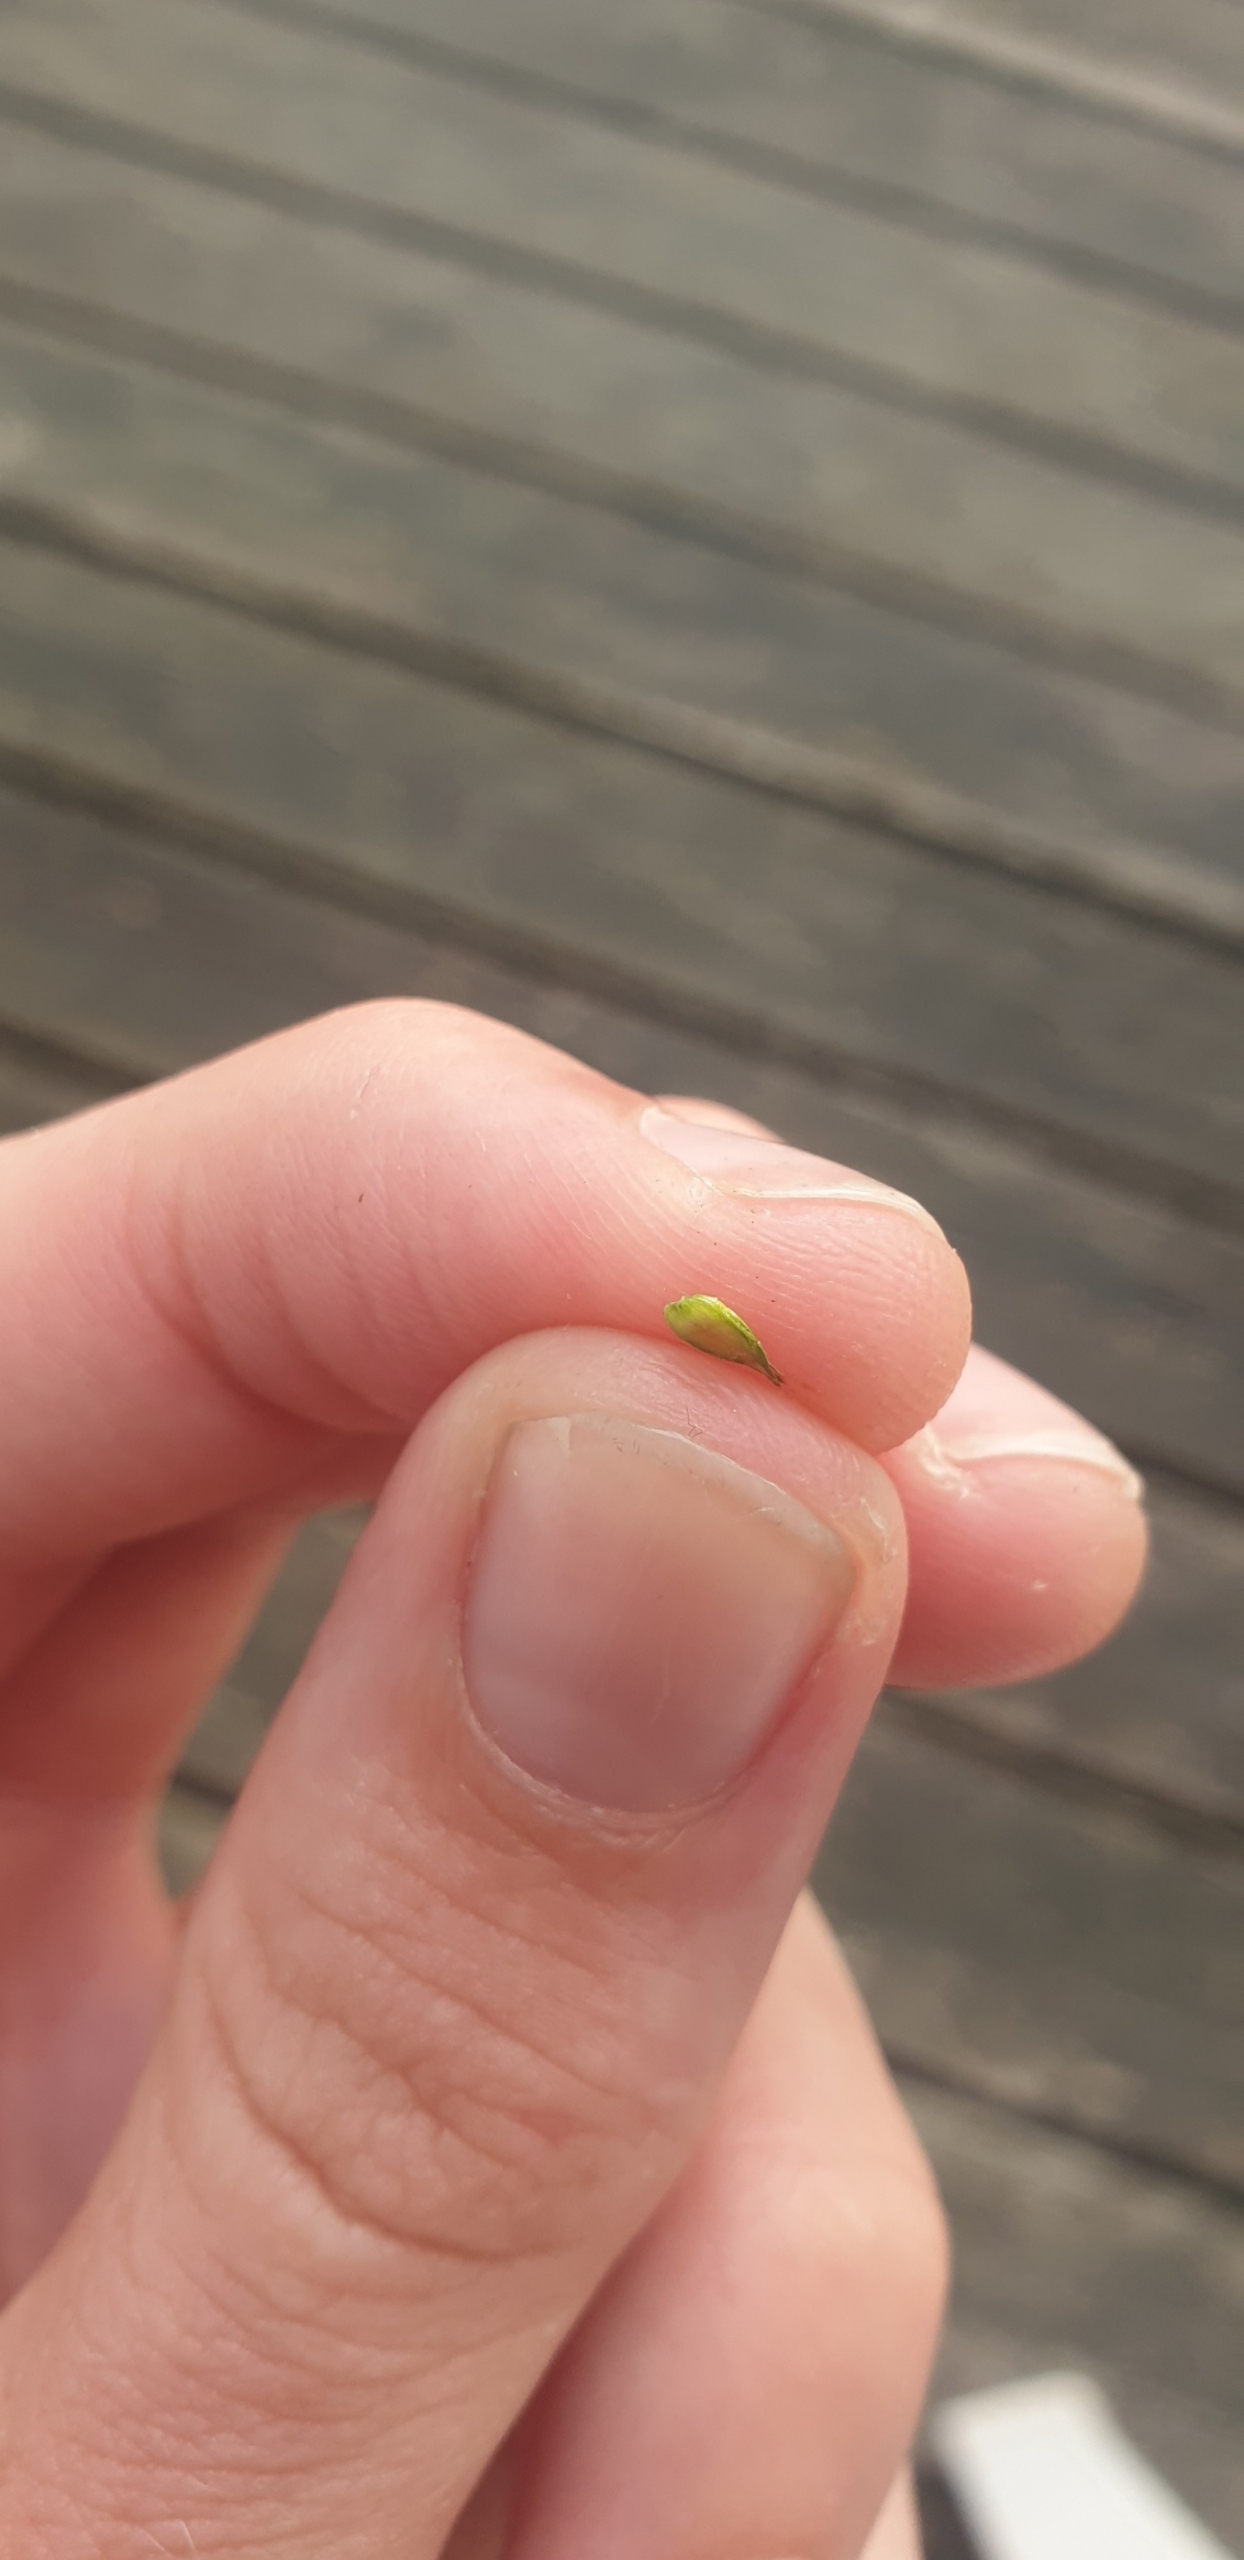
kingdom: Plantae
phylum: Tracheophyta
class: Liliopsida
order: Poales
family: Cyperaceae
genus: Carex
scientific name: Carex otrubae
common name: Sylt-star
